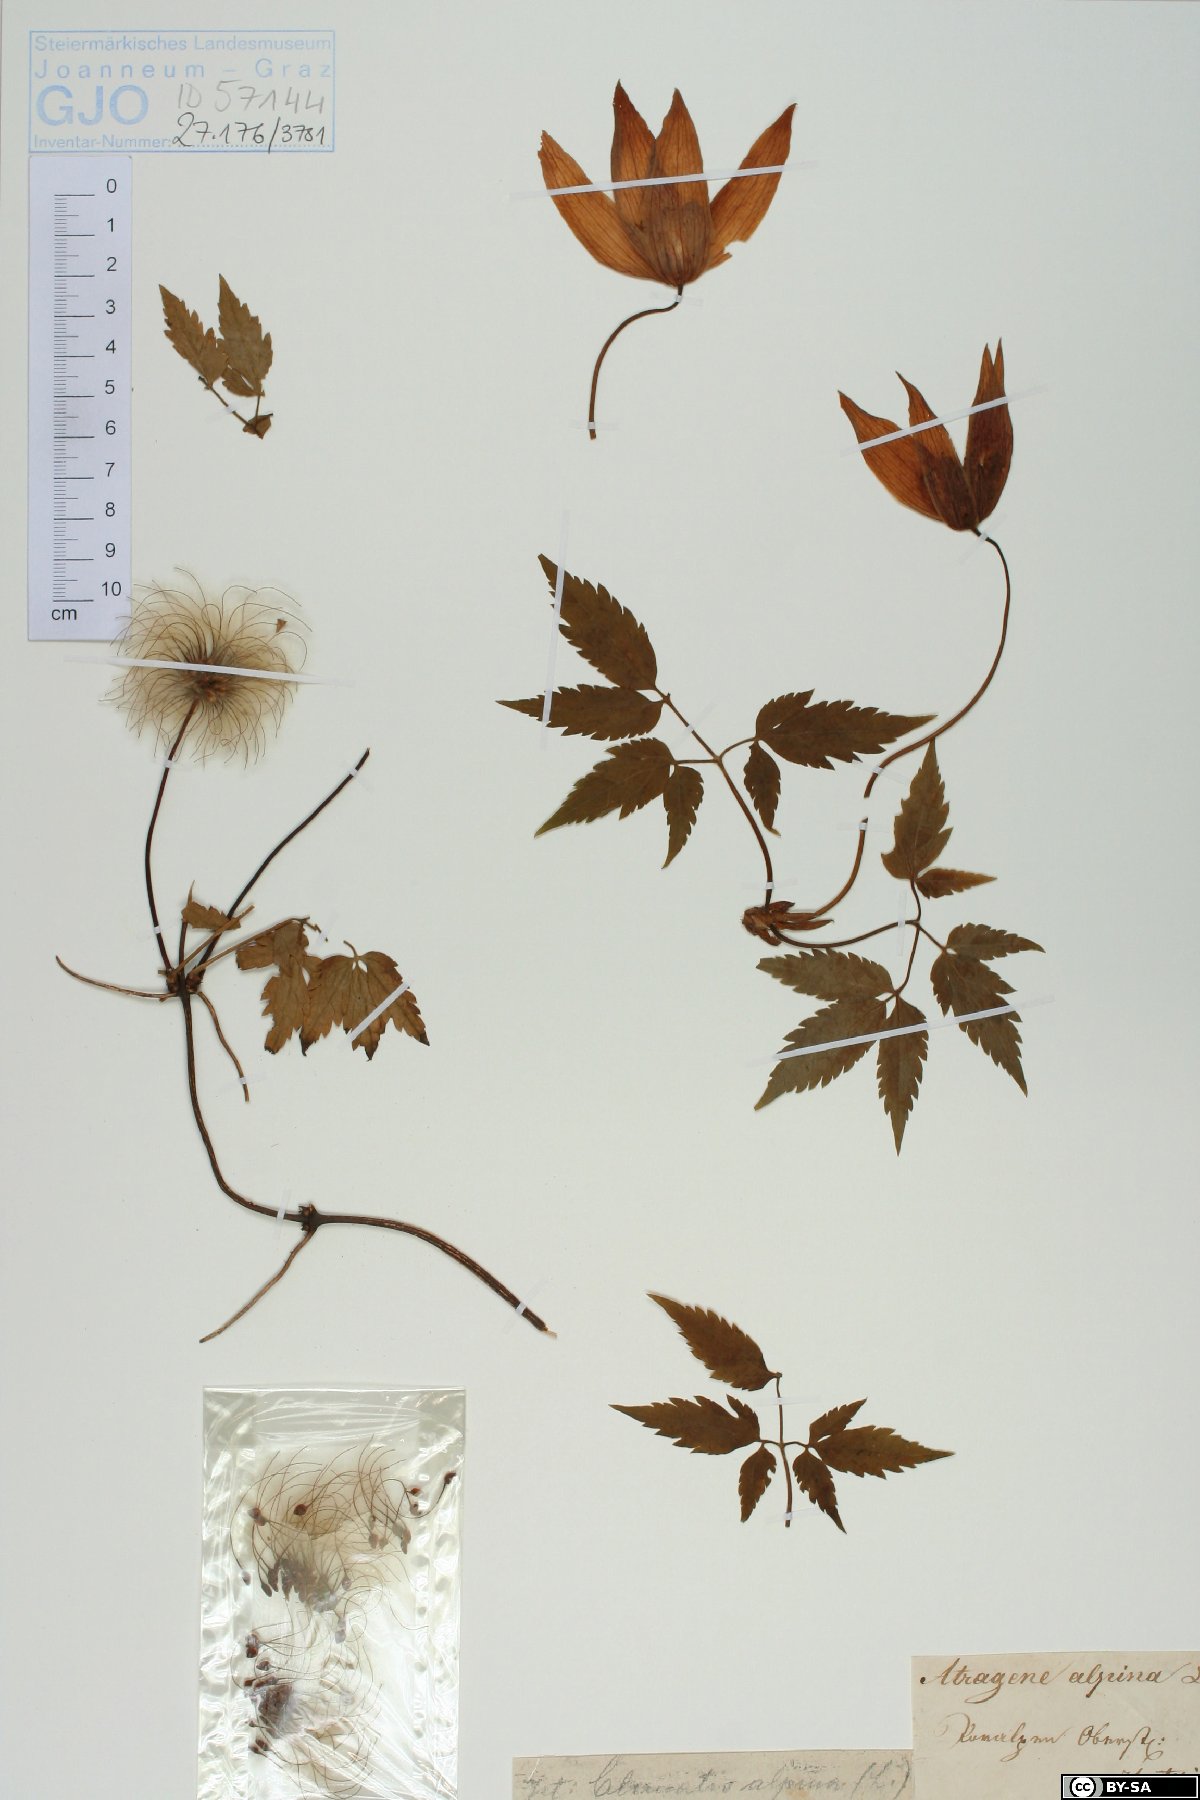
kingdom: Plantae
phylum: Tracheophyta
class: Magnoliopsida
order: Ranunculales
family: Ranunculaceae
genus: Clematis
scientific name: Clematis alpina
